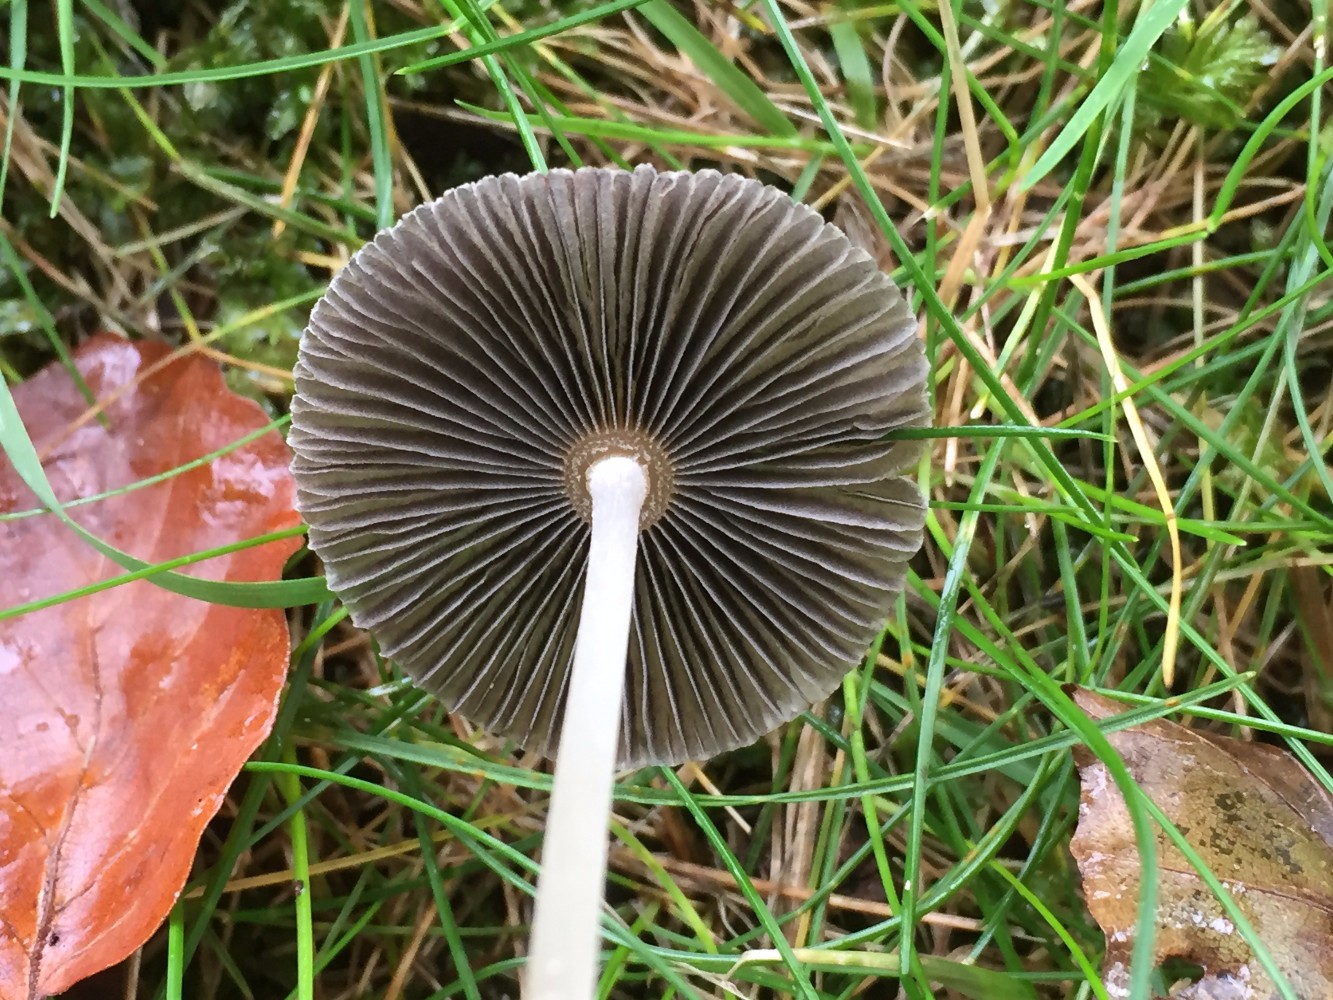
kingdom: Fungi
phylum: Basidiomycota
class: Agaricomycetes
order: Agaricales
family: Psathyrellaceae
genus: Parasola
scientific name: Parasola
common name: hjulhat
